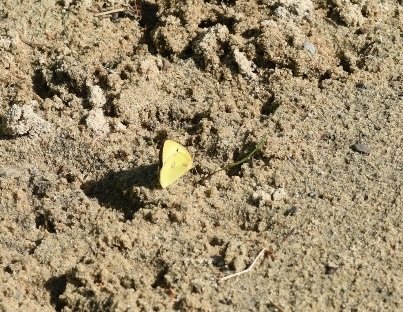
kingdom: Animalia
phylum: Arthropoda
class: Insecta
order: Lepidoptera
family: Pieridae
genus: Colias
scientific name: Colias philodice
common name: Clouded Sulphur
